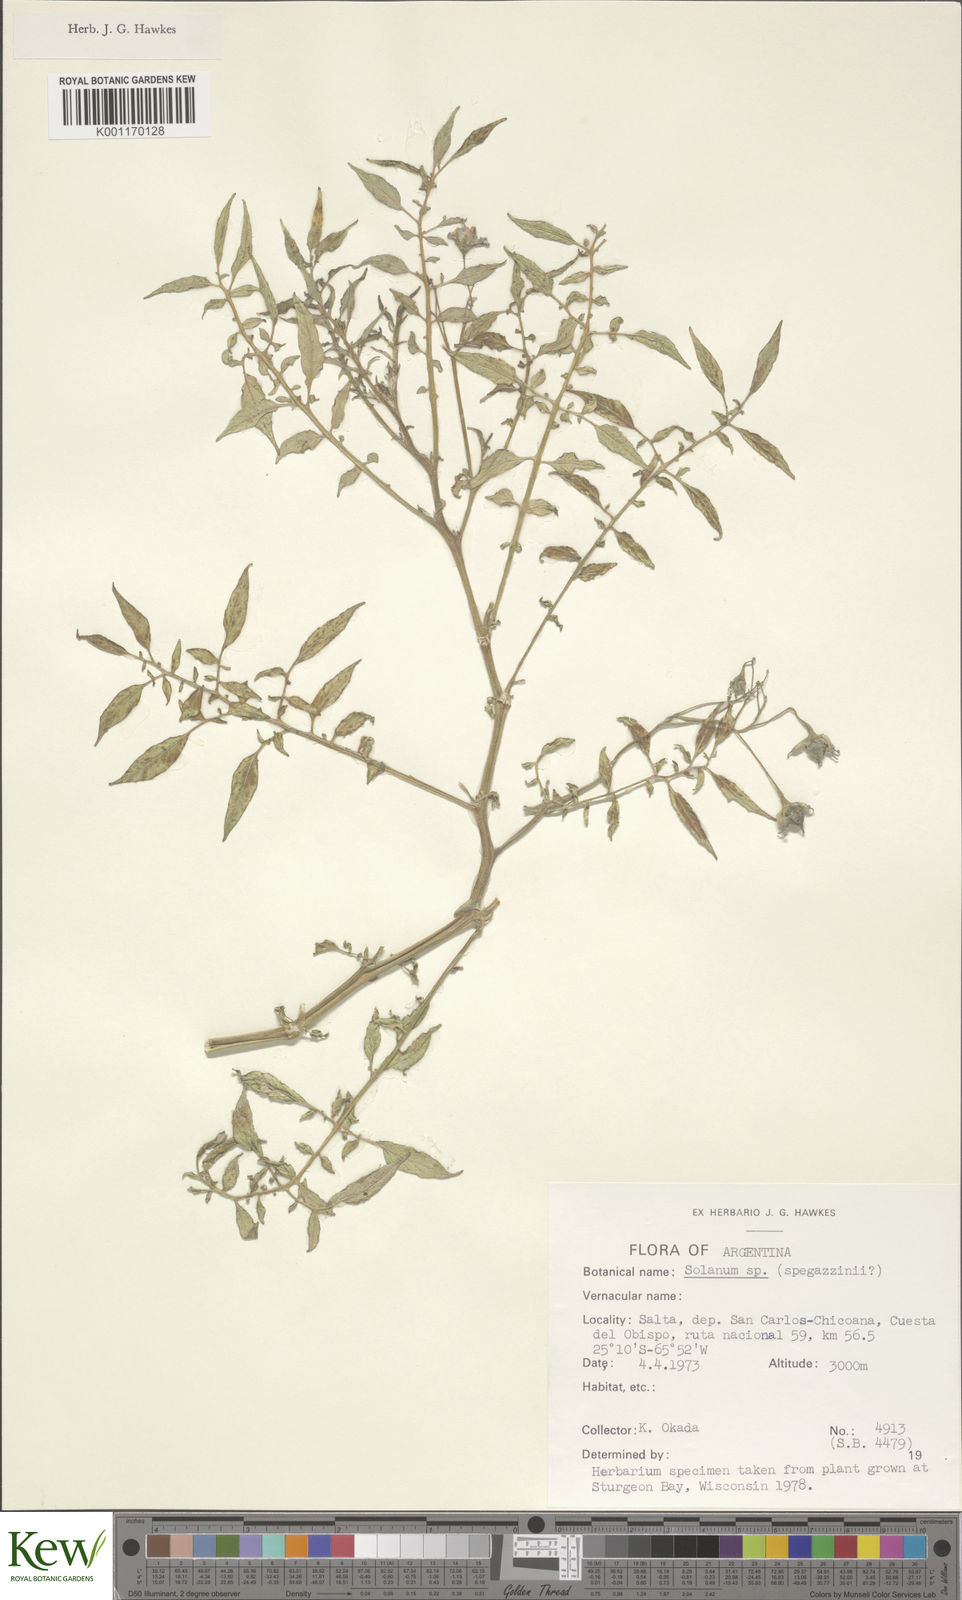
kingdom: Plantae
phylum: Tracheophyta
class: Magnoliopsida
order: Solanales
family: Solanaceae
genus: Solanum
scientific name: Solanum brevicaule
